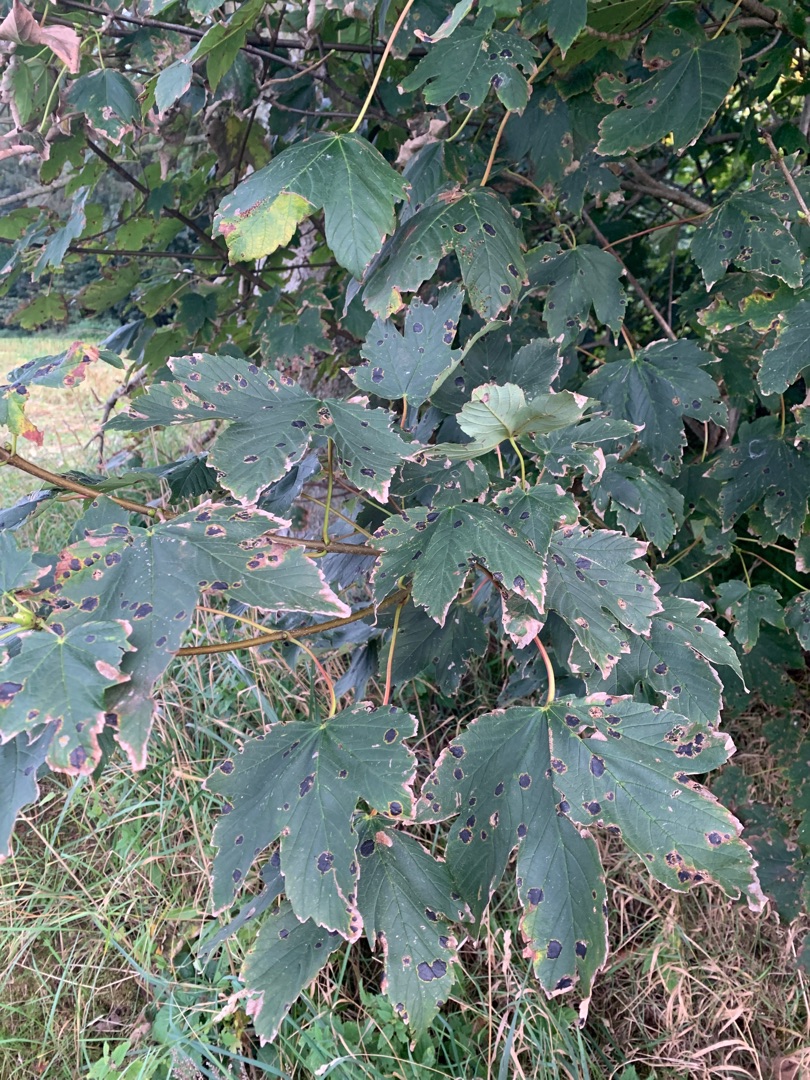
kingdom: Plantae
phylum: Tracheophyta
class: Magnoliopsida
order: Sapindales
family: Sapindaceae
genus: Acer
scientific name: Acer pseudoplatanus
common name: Ahorn
